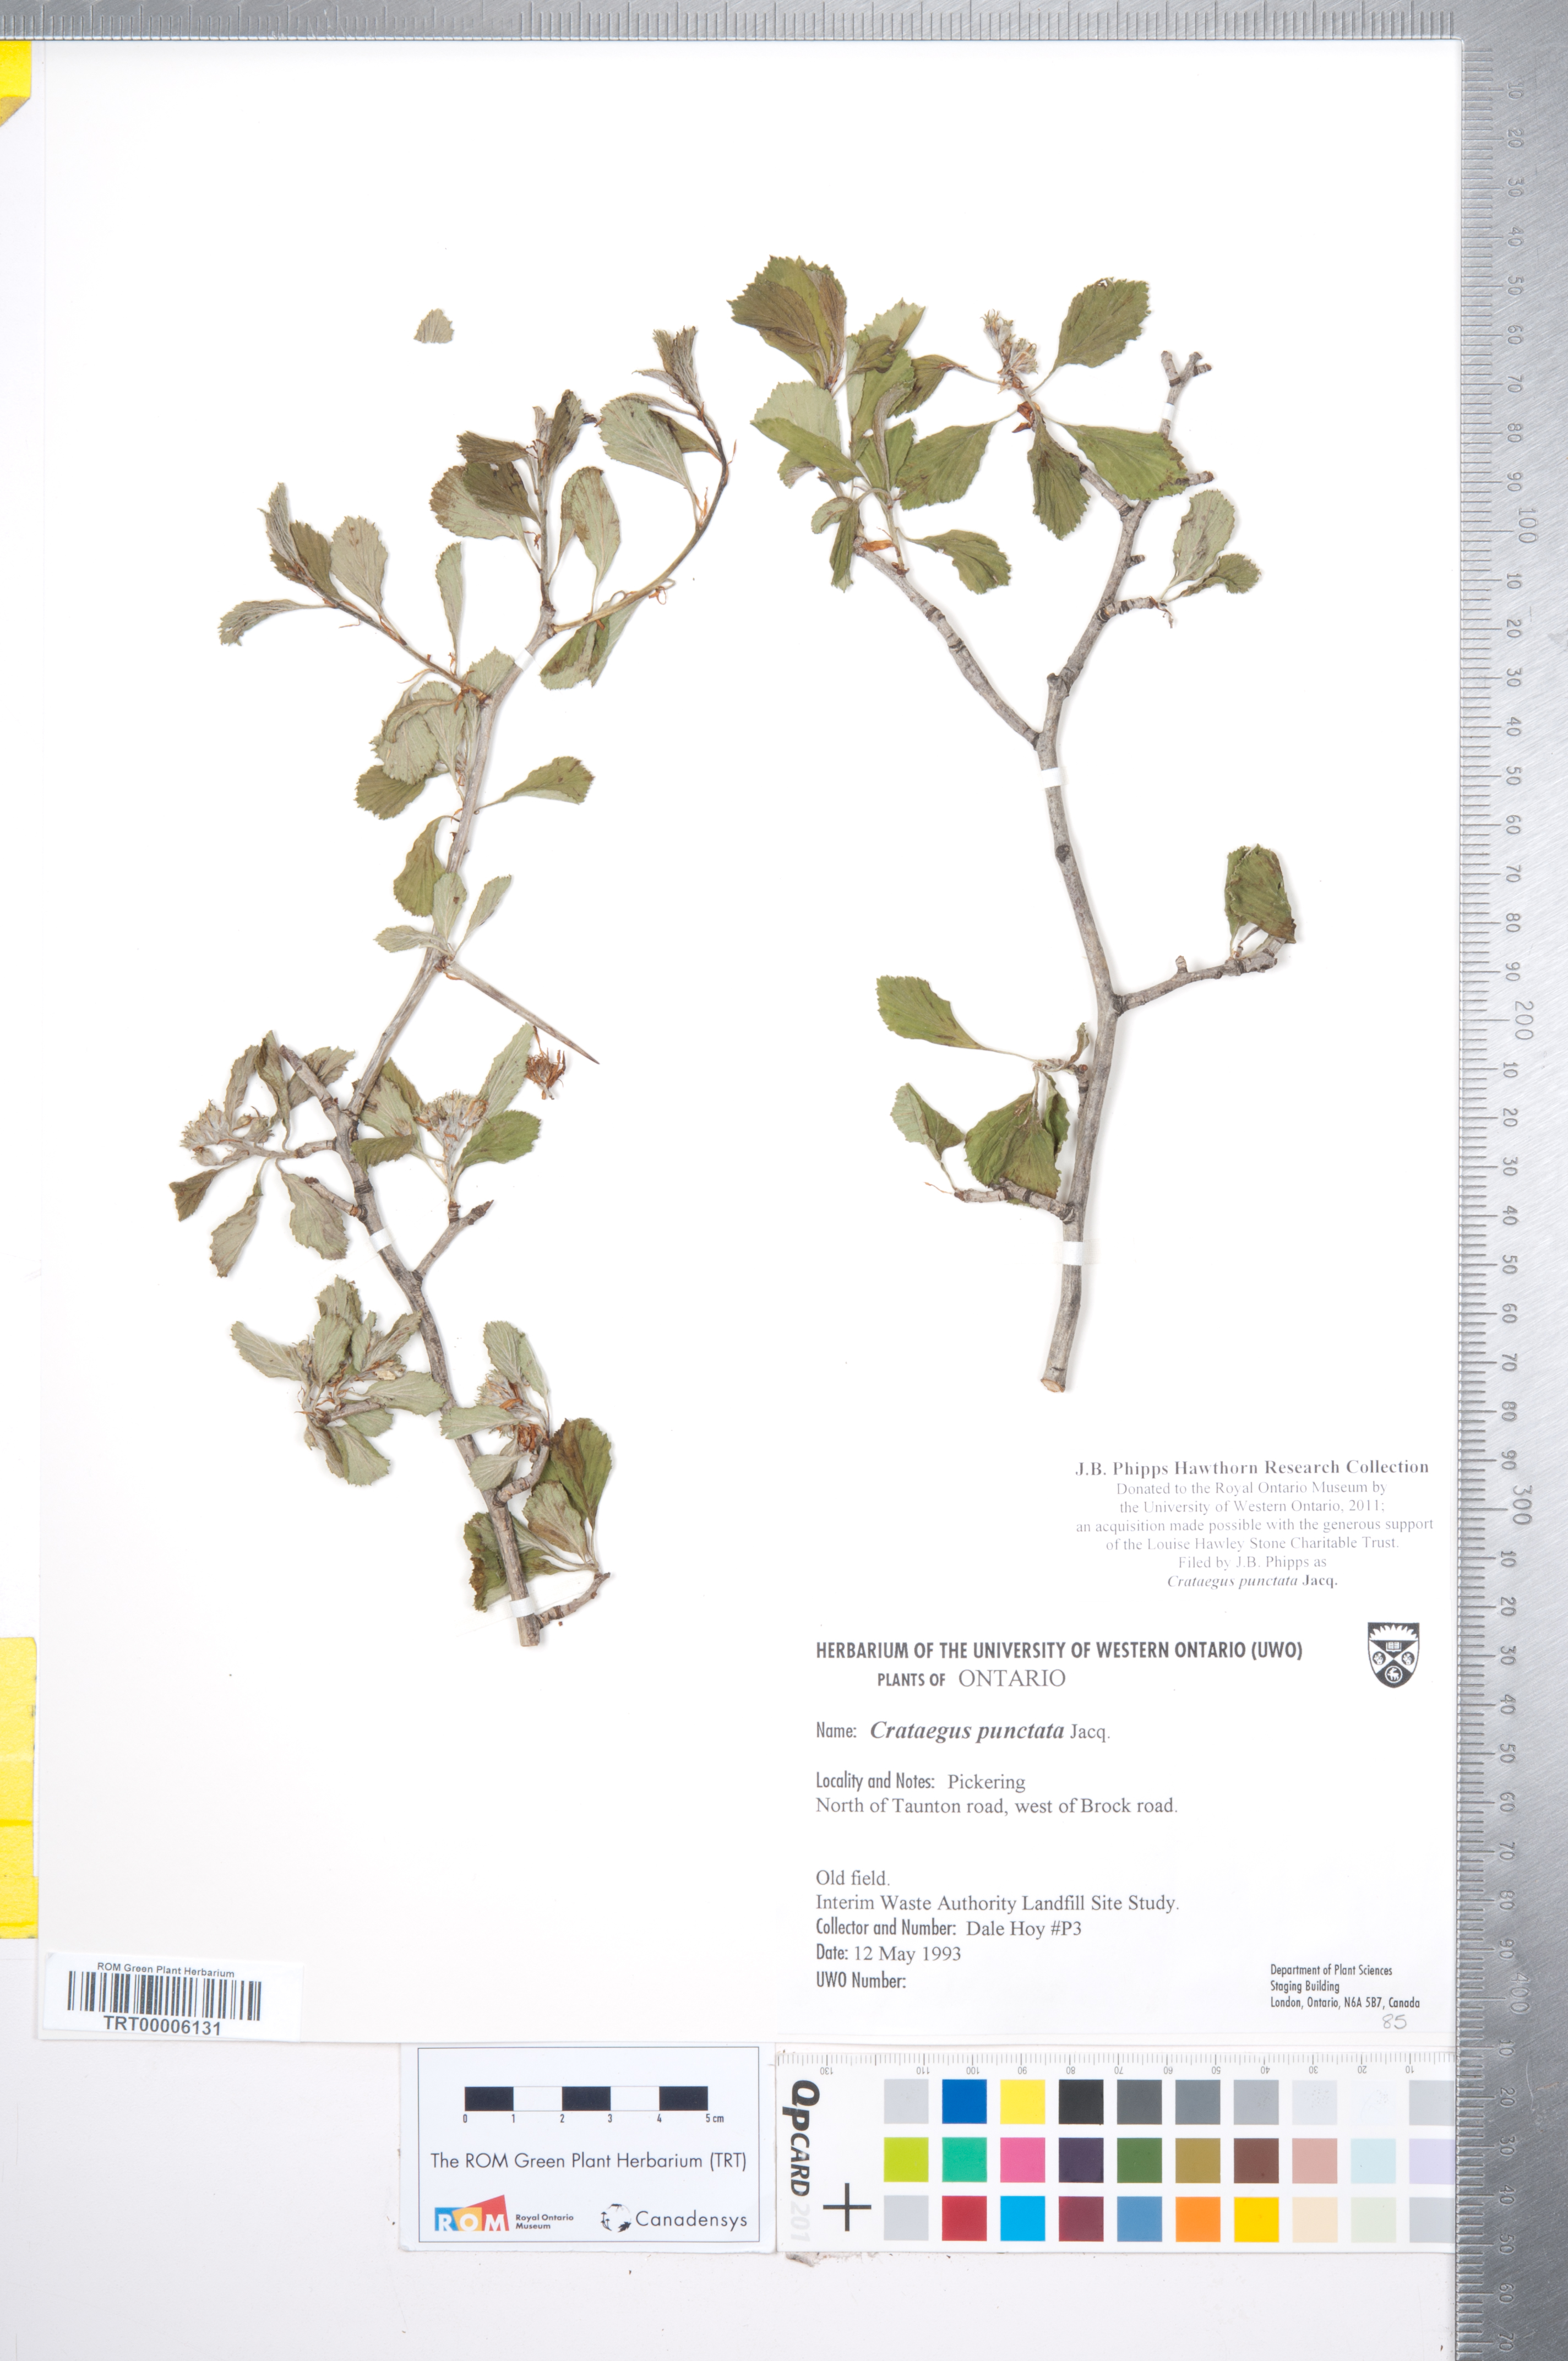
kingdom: Plantae
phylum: Tracheophyta
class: Magnoliopsida
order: Rosales
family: Rosaceae
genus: Crataegus
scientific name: Crataegus punctata
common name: Dotted hawthorn
